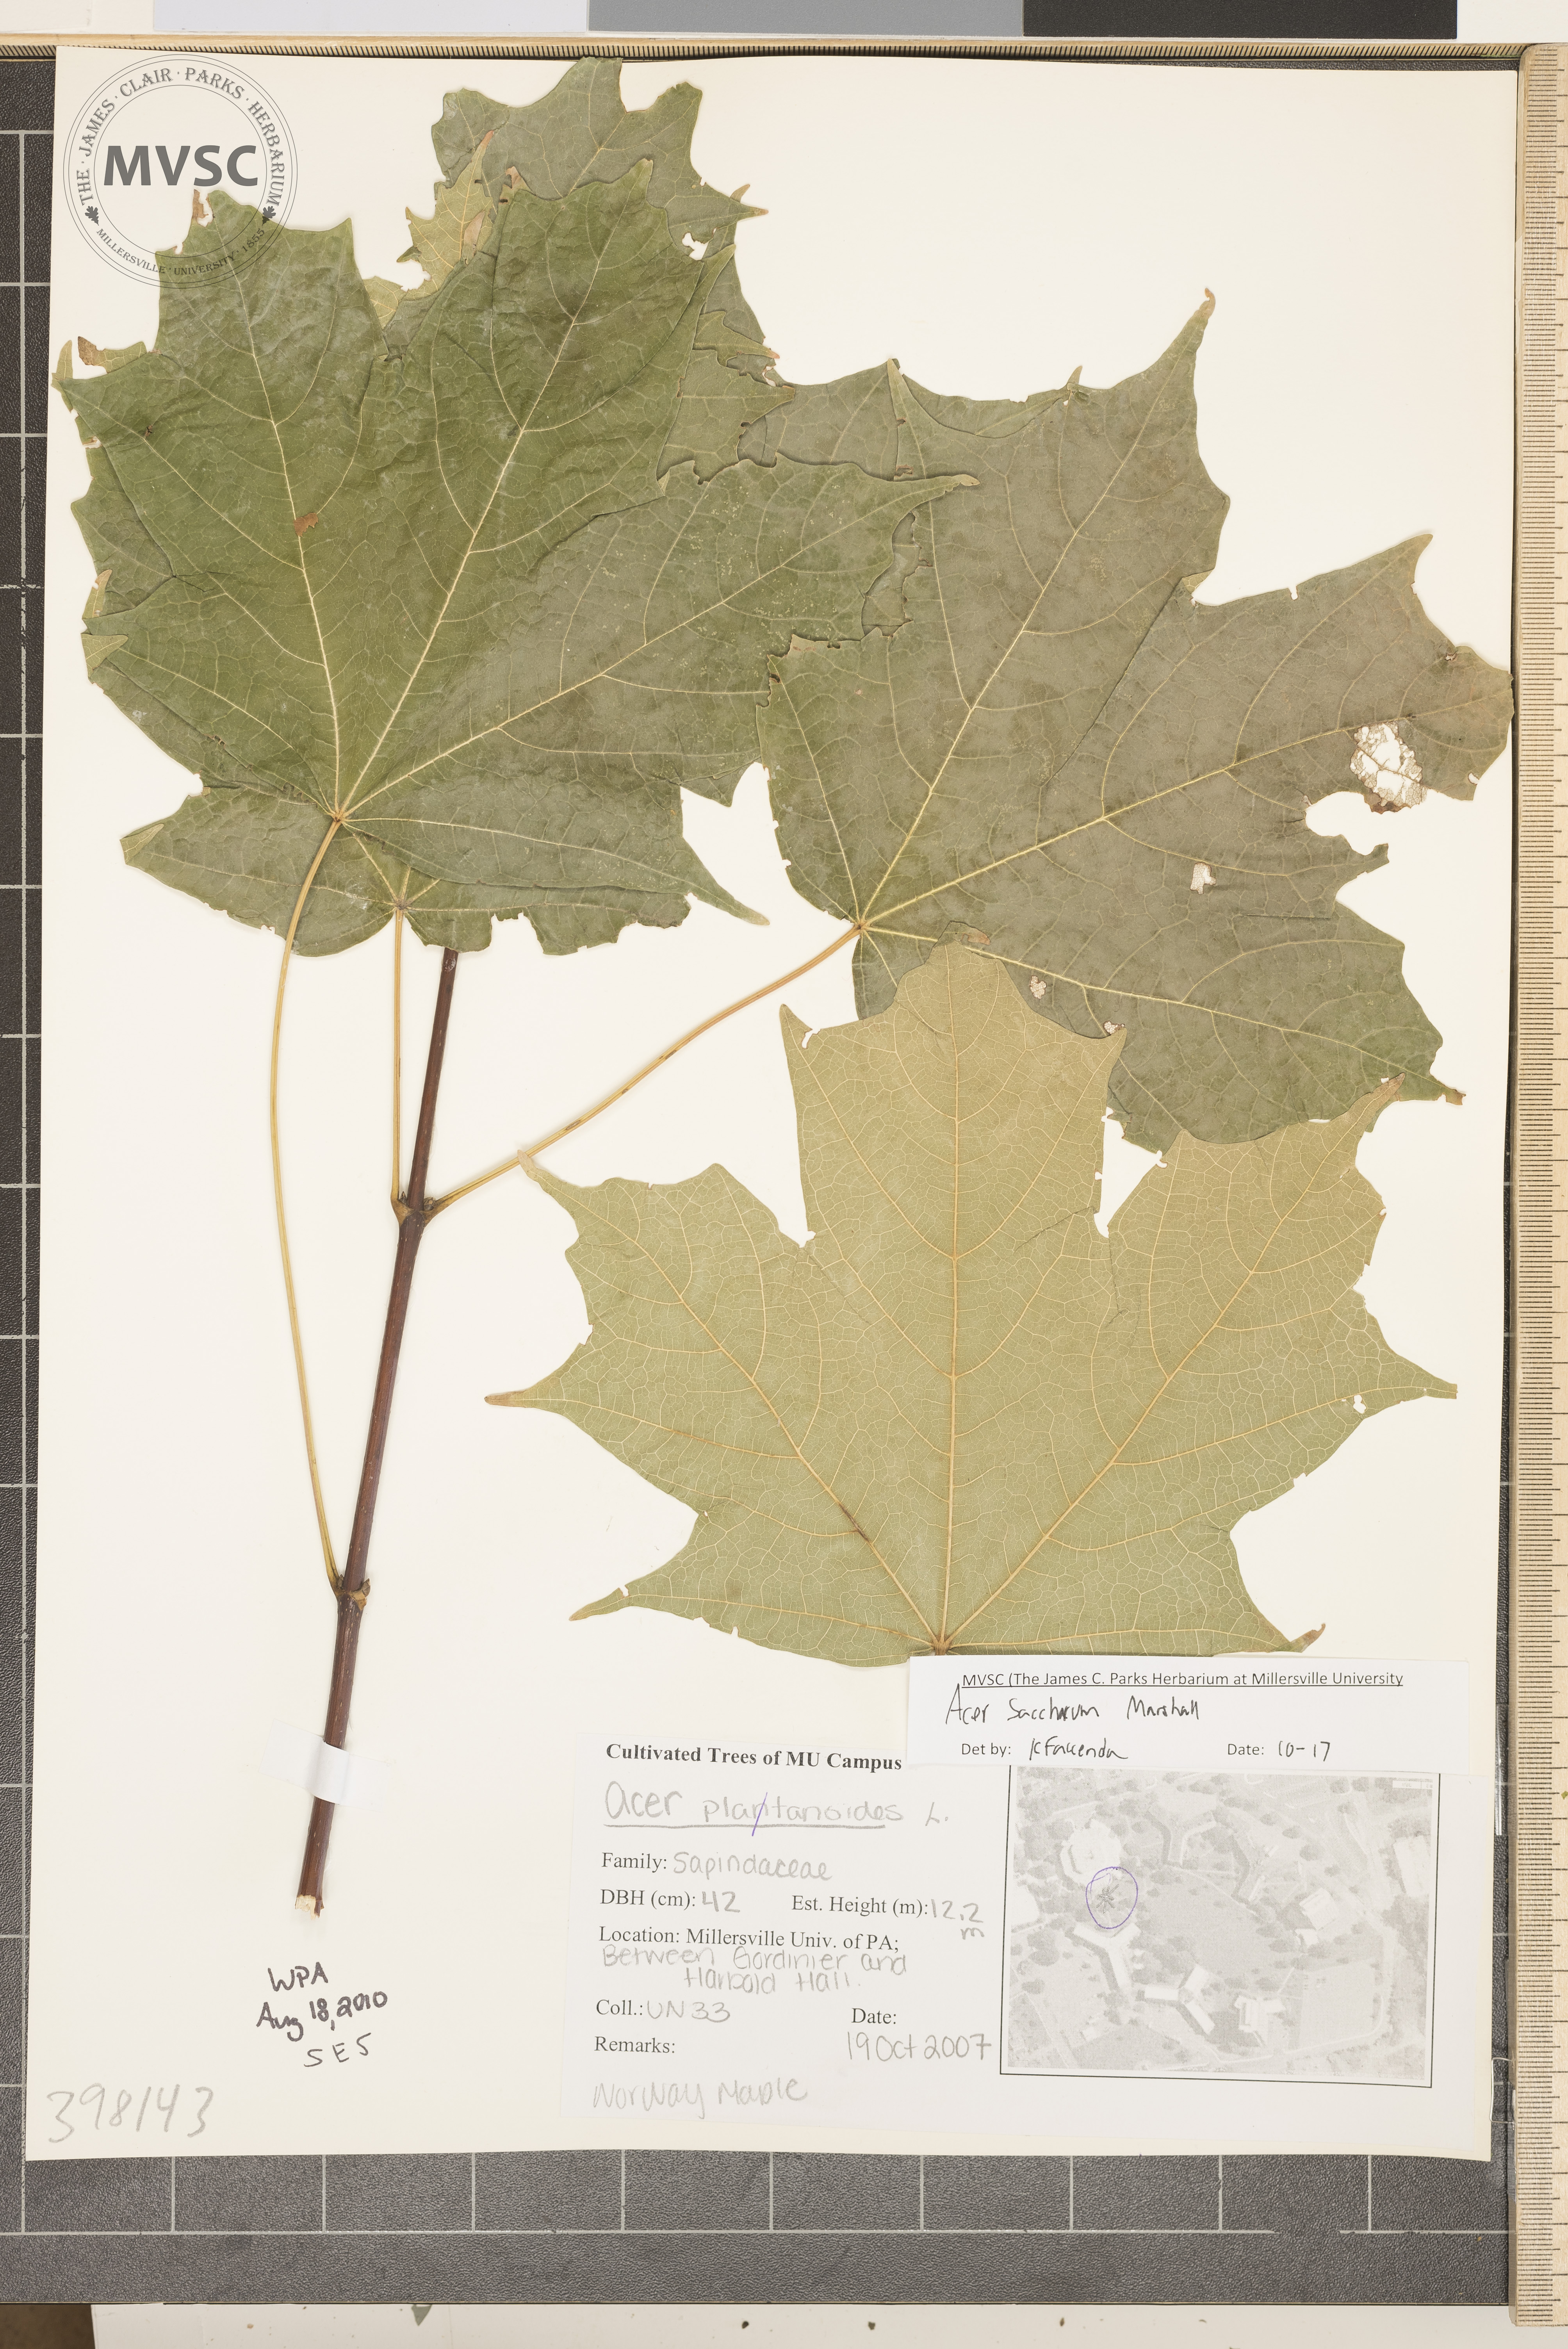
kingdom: Plantae
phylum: Tracheophyta
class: Magnoliopsida
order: Sapindales
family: Sapindaceae
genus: Acer
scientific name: Acer saccharum
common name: Sugar maple
